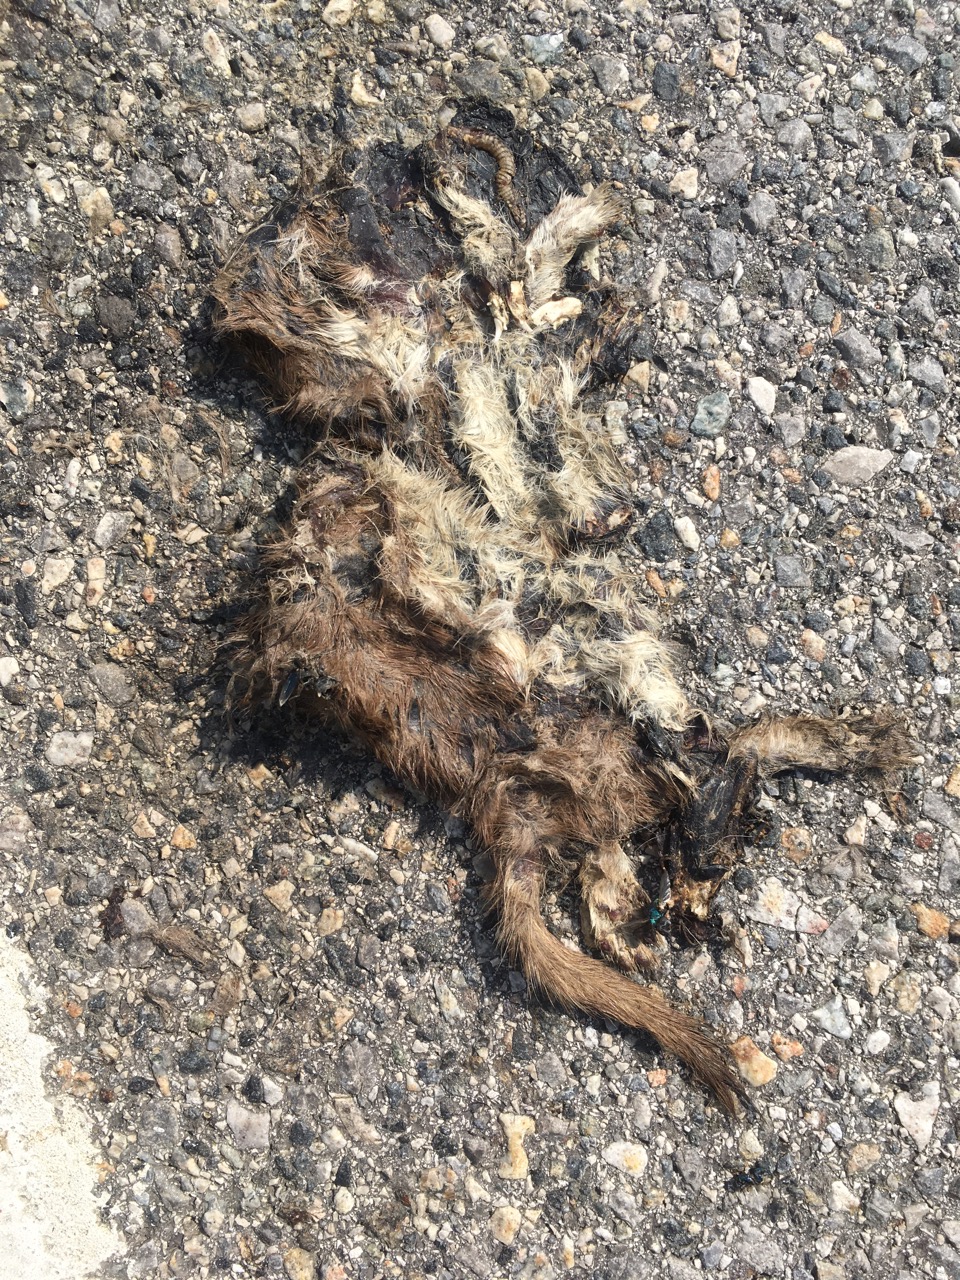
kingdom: Animalia
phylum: Chordata
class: Mammalia
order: Carnivora
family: Mustelidae
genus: Mustela
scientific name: Mustela nivalis
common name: Least weasel
